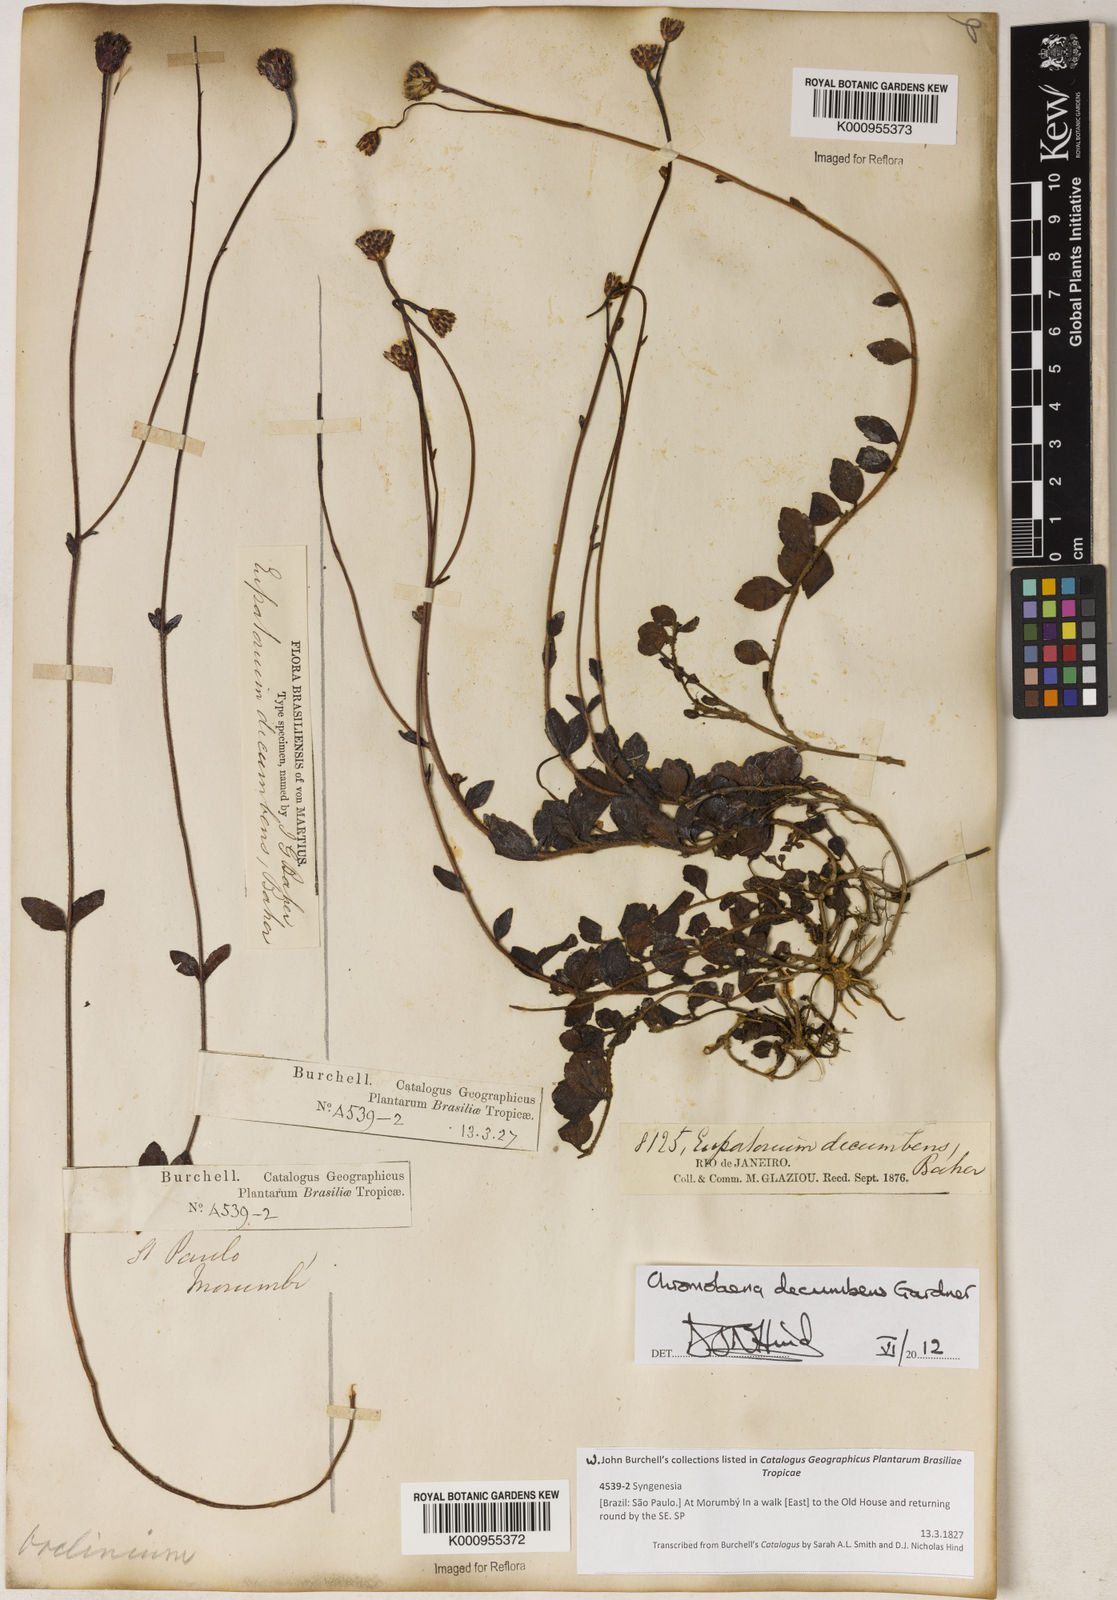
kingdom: Plantae
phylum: Tracheophyta
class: Magnoliopsida
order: Asterales
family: Asteraceae
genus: Praxelis
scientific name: Praxelis decumbens
